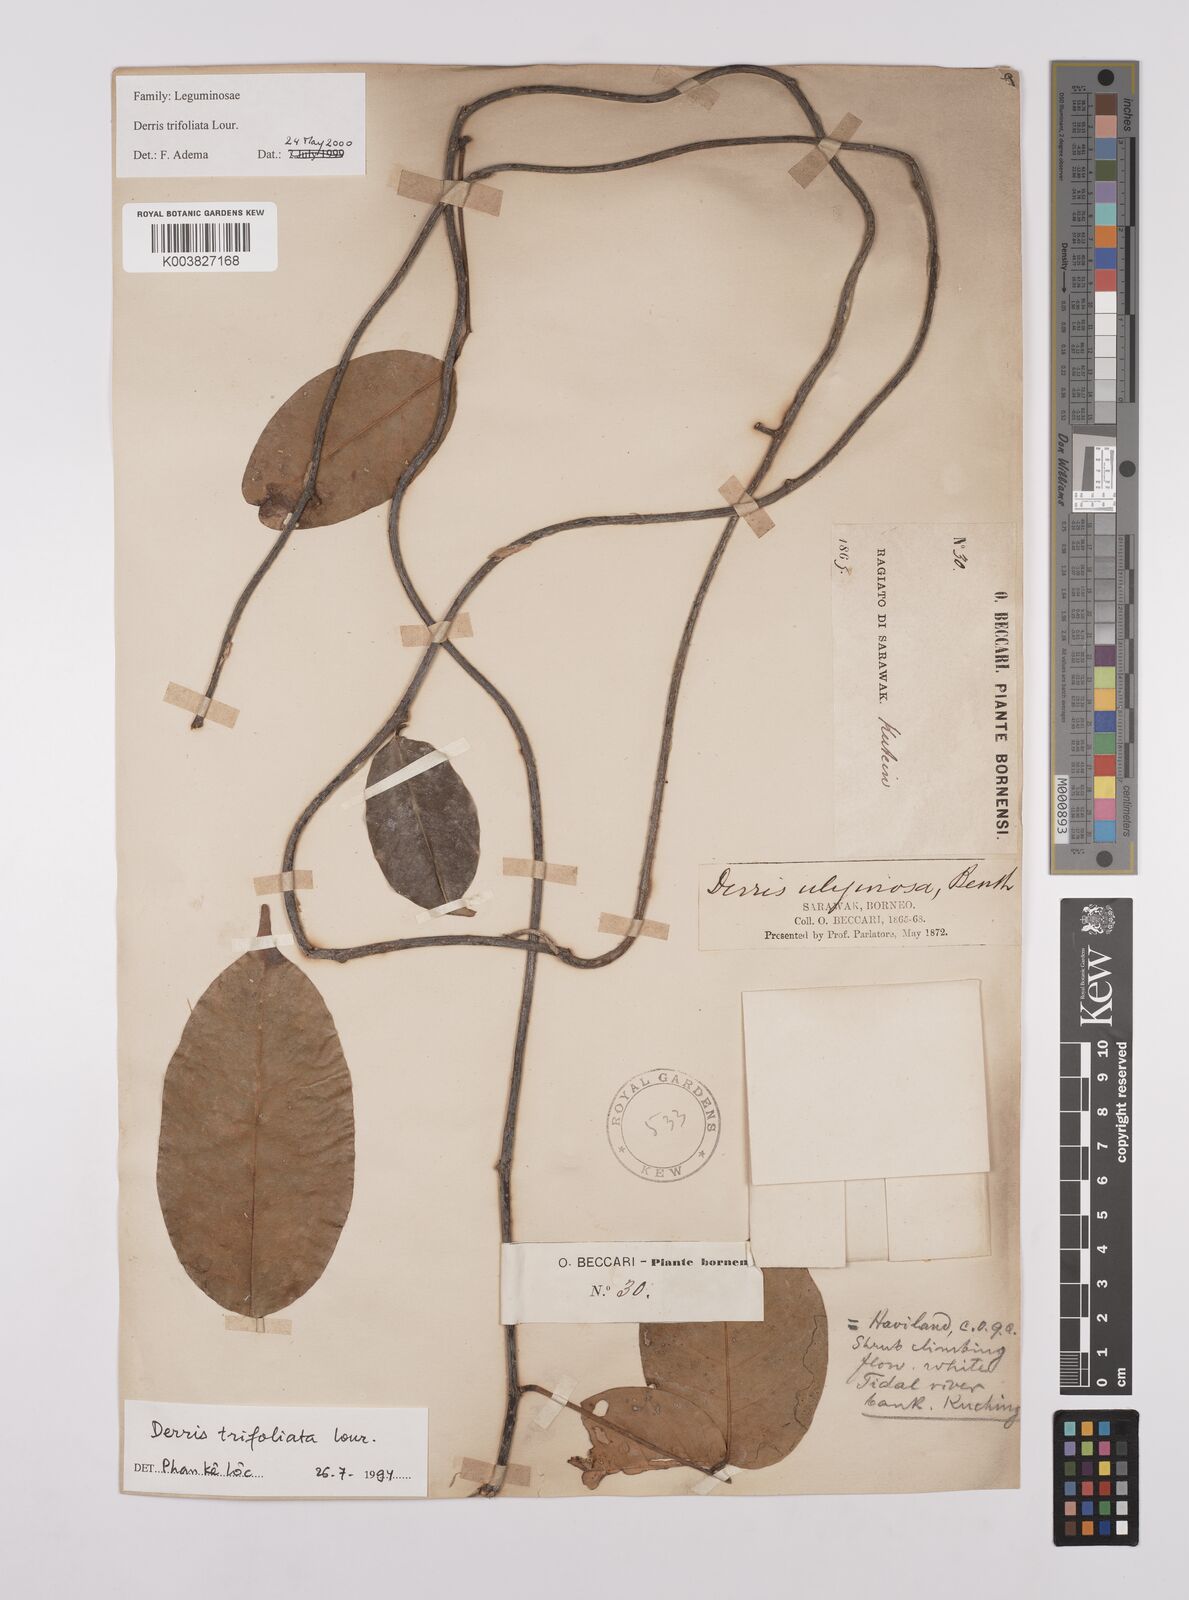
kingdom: Plantae
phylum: Tracheophyta
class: Magnoliopsida
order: Fabales
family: Fabaceae
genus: Derris
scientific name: Derris trifoliata
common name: Three-leaf derris
